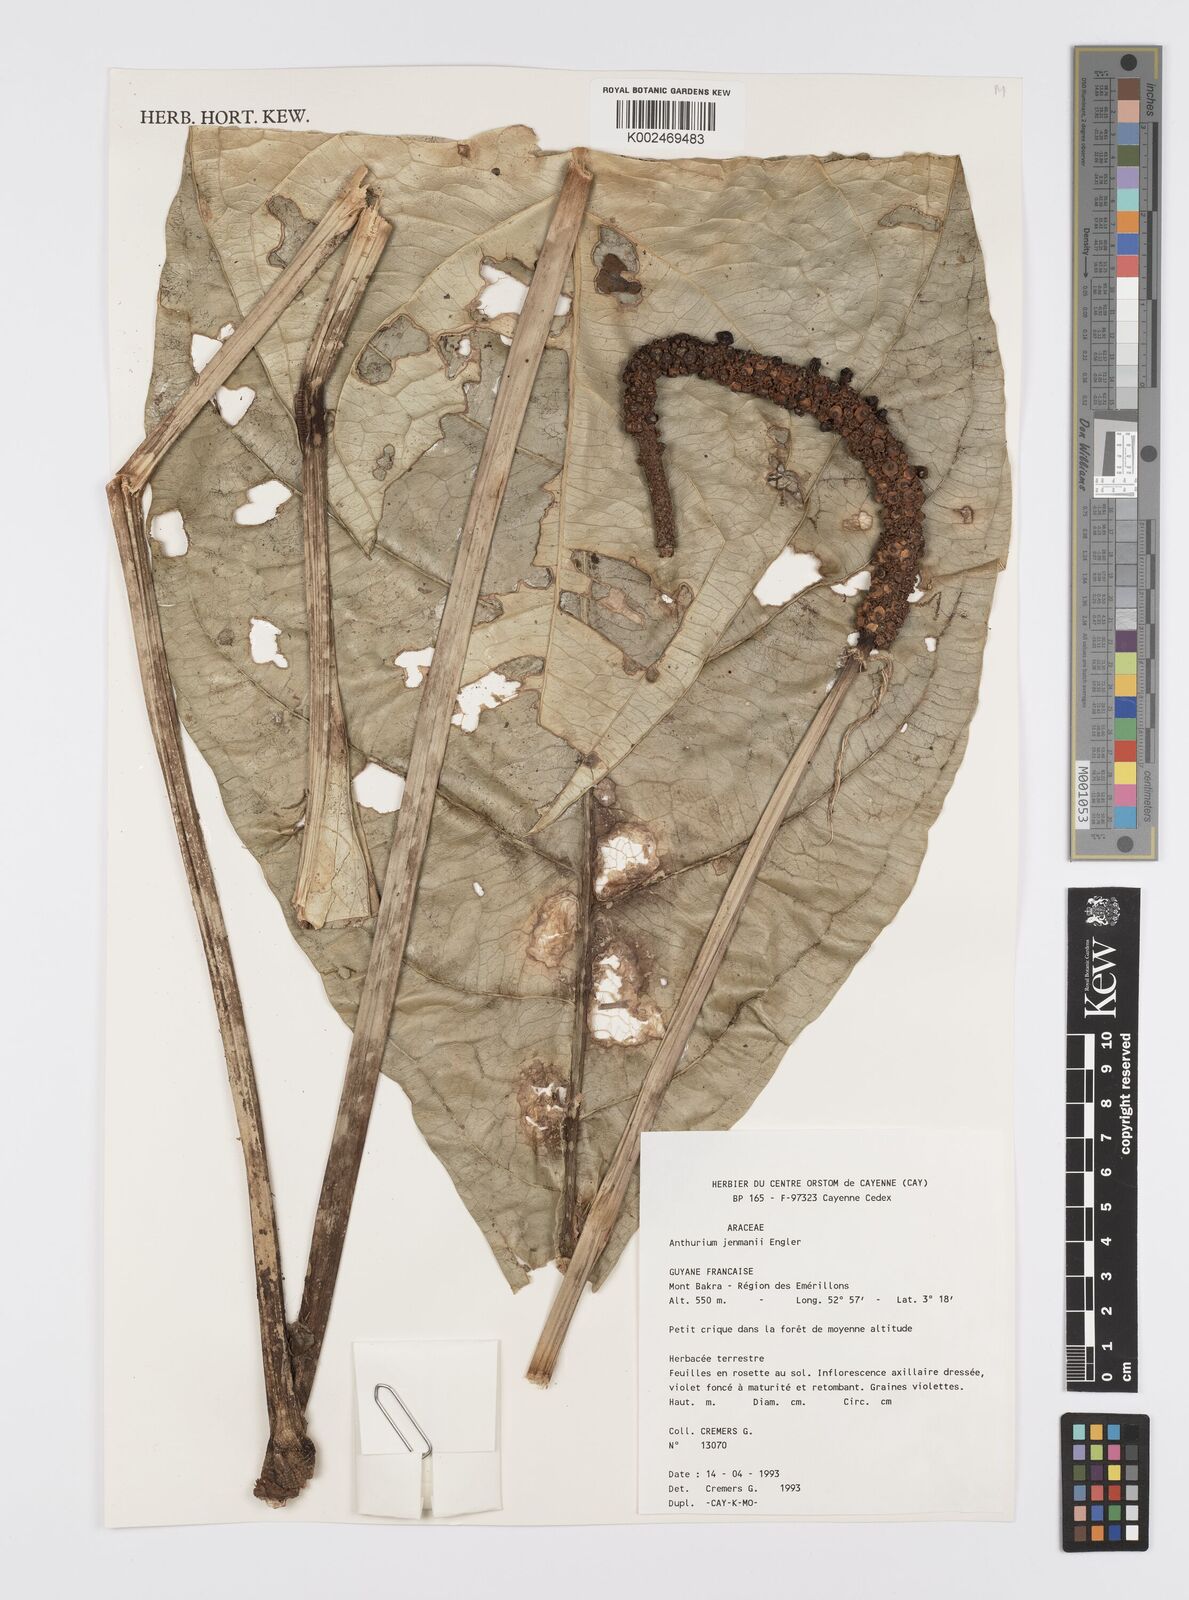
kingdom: Plantae
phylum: Tracheophyta
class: Liliopsida
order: Alismatales
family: Araceae
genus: Anthurium
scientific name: Anthurium jenmanii
